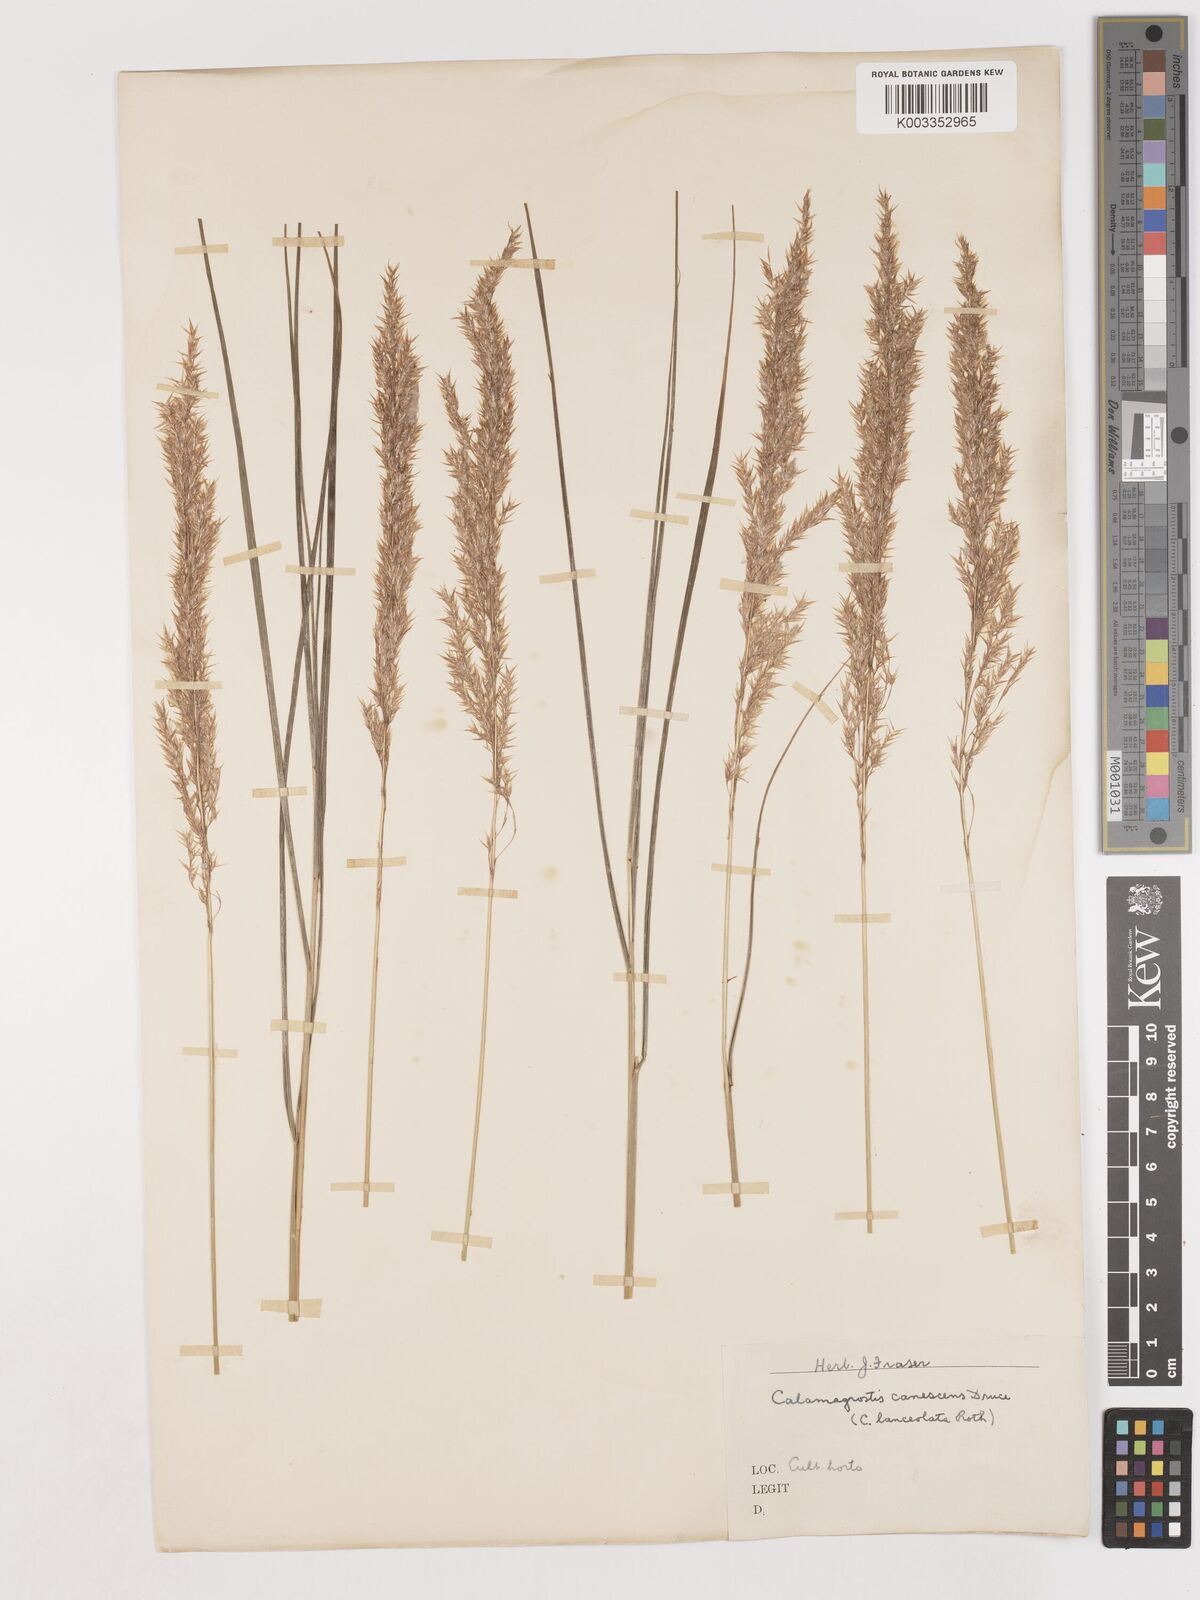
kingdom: Plantae
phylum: Tracheophyta
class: Liliopsida
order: Poales
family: Poaceae
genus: Calamagrostis
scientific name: Calamagrostis canescens
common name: Purple small-reed
